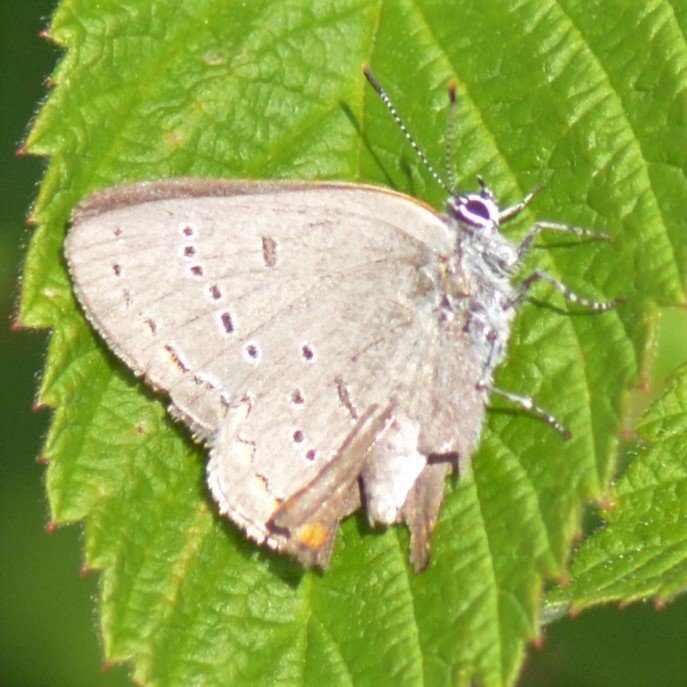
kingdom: Animalia
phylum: Arthropoda
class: Insecta
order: Lepidoptera
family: Lycaenidae
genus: Strymon
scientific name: Strymon acadica
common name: Acadian Hairstreak
